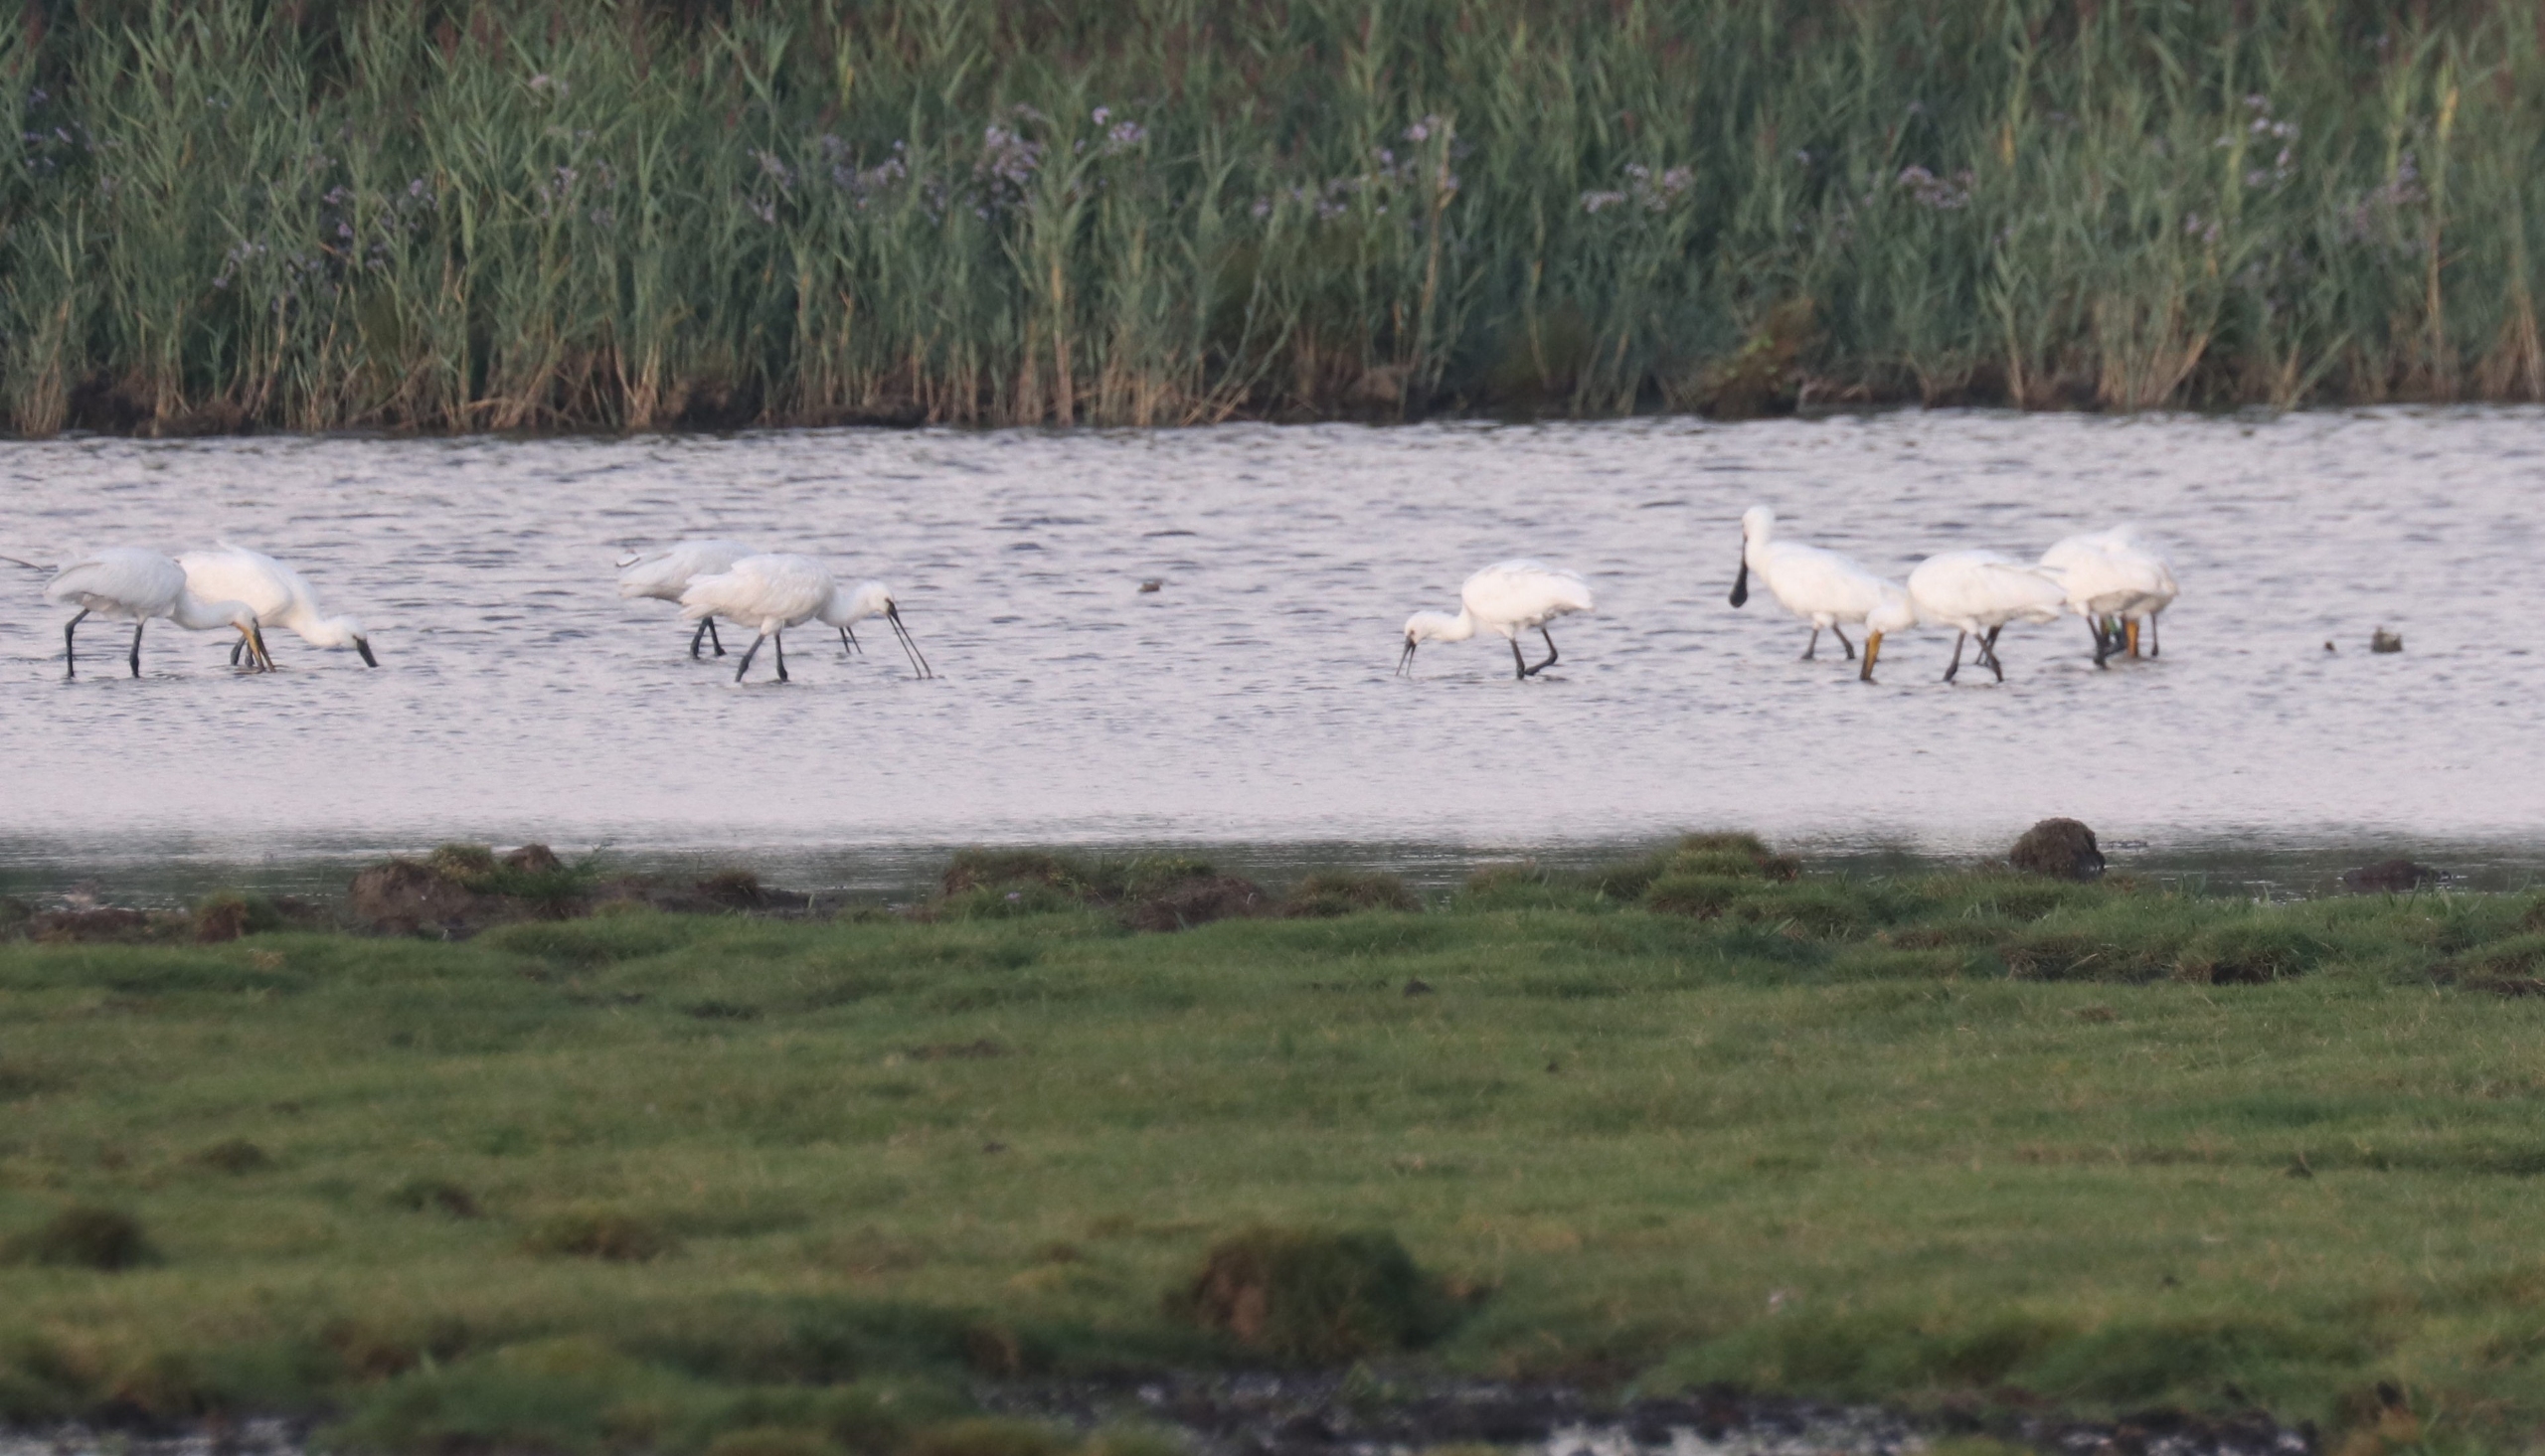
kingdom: Animalia
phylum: Chordata
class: Aves
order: Pelecaniformes
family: Threskiornithidae
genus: Platalea
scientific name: Platalea leucorodia
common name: Skestork
